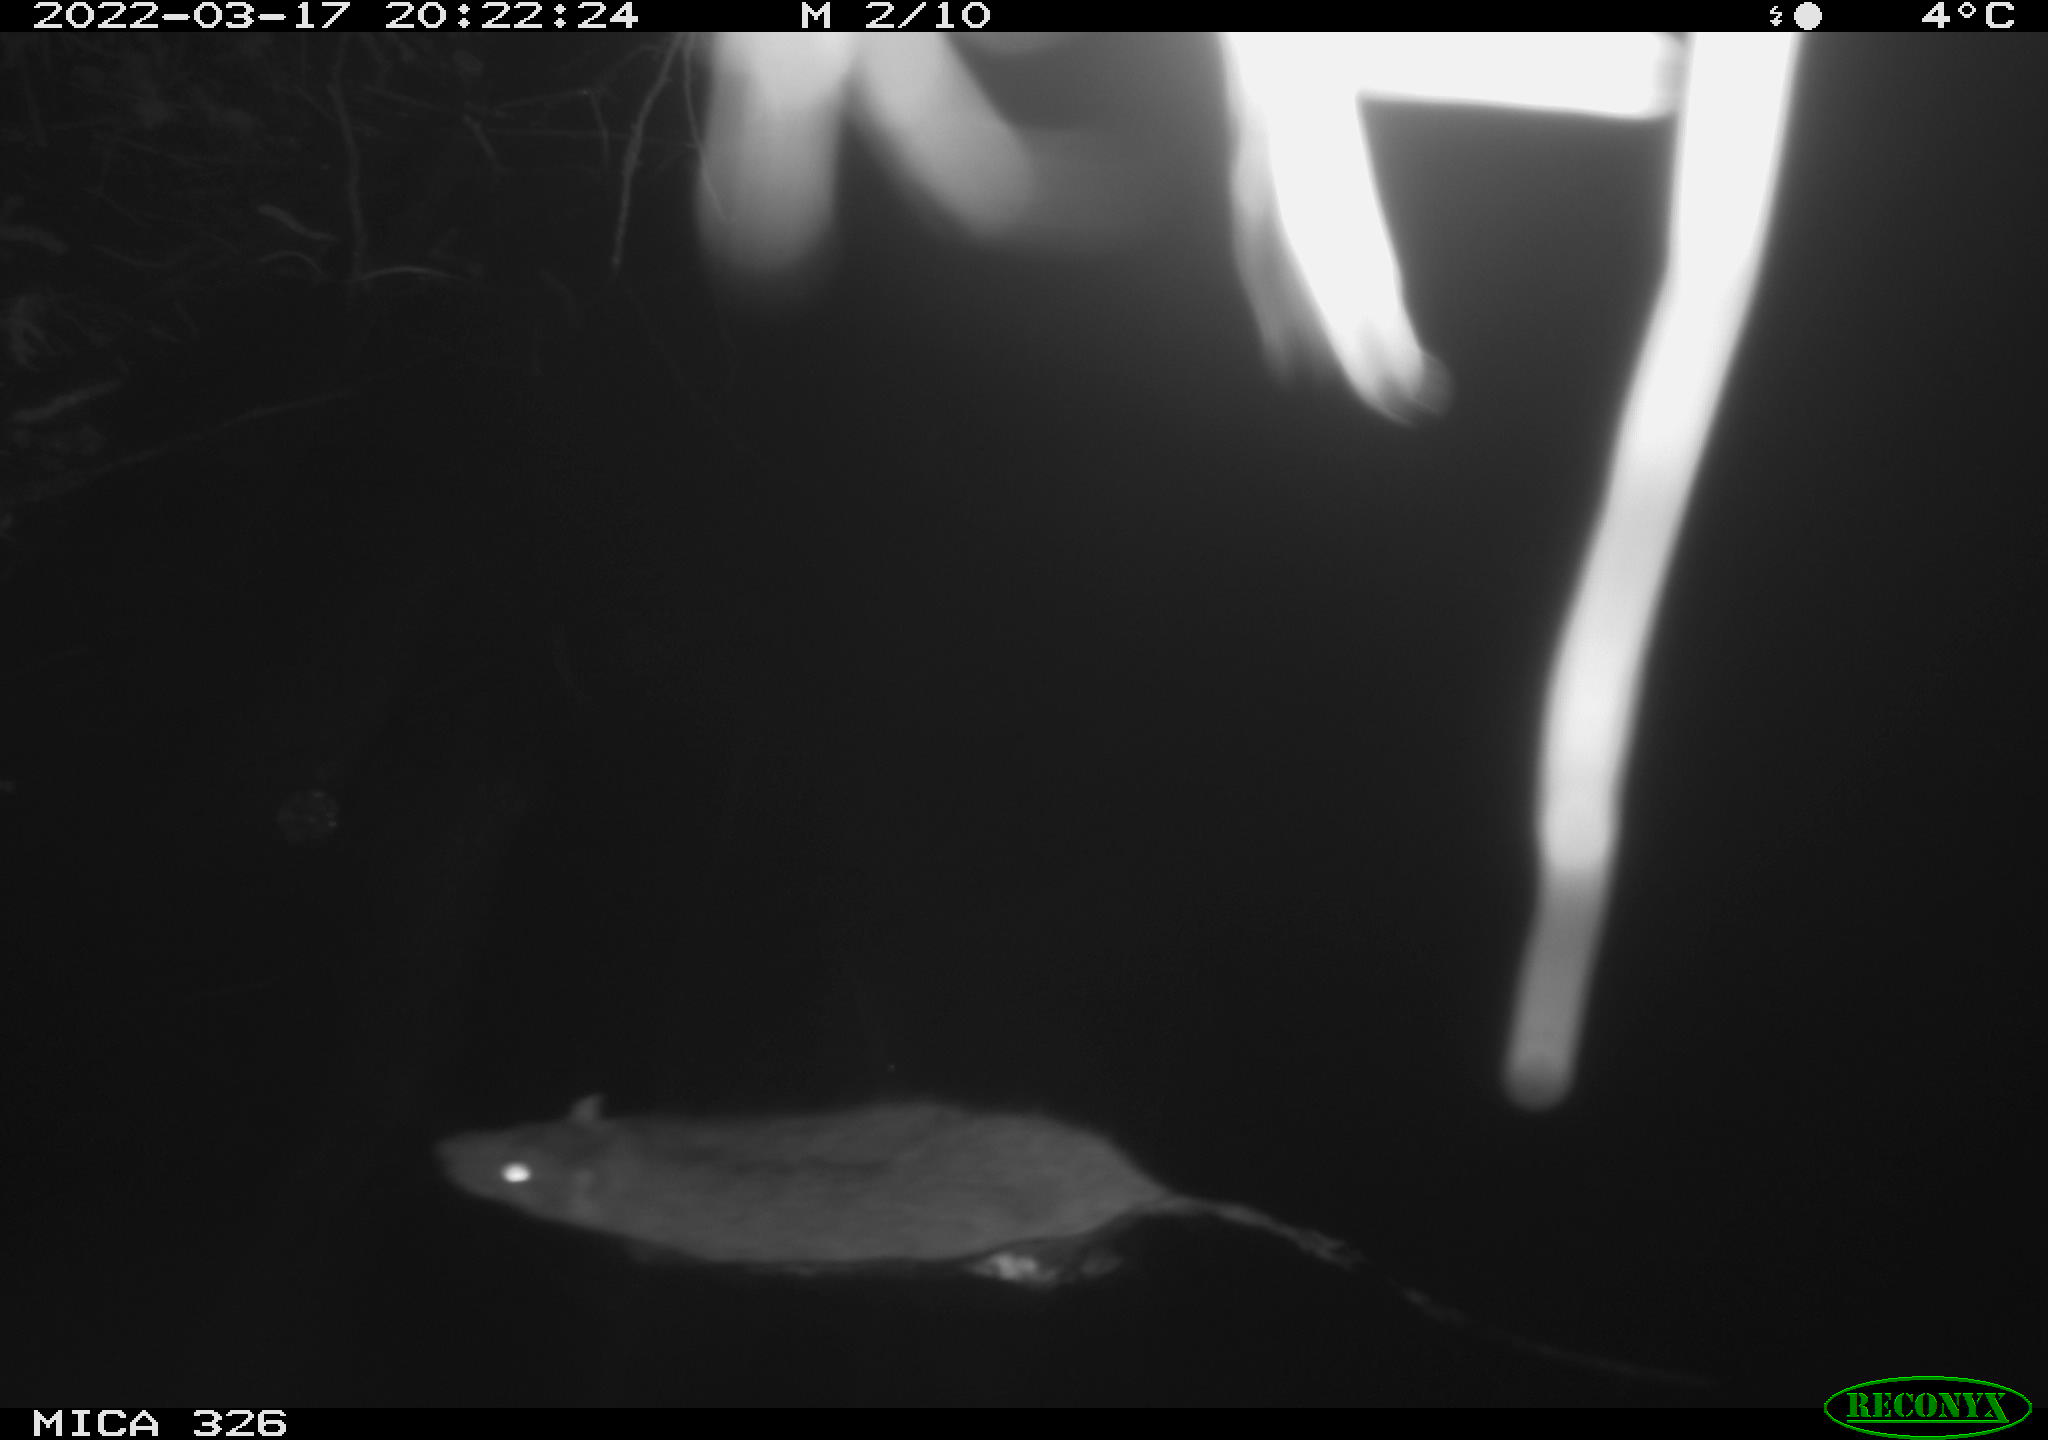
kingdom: Animalia
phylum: Chordata
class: Mammalia
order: Rodentia
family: Muridae
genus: Rattus
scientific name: Rattus norvegicus
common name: Brown rat
